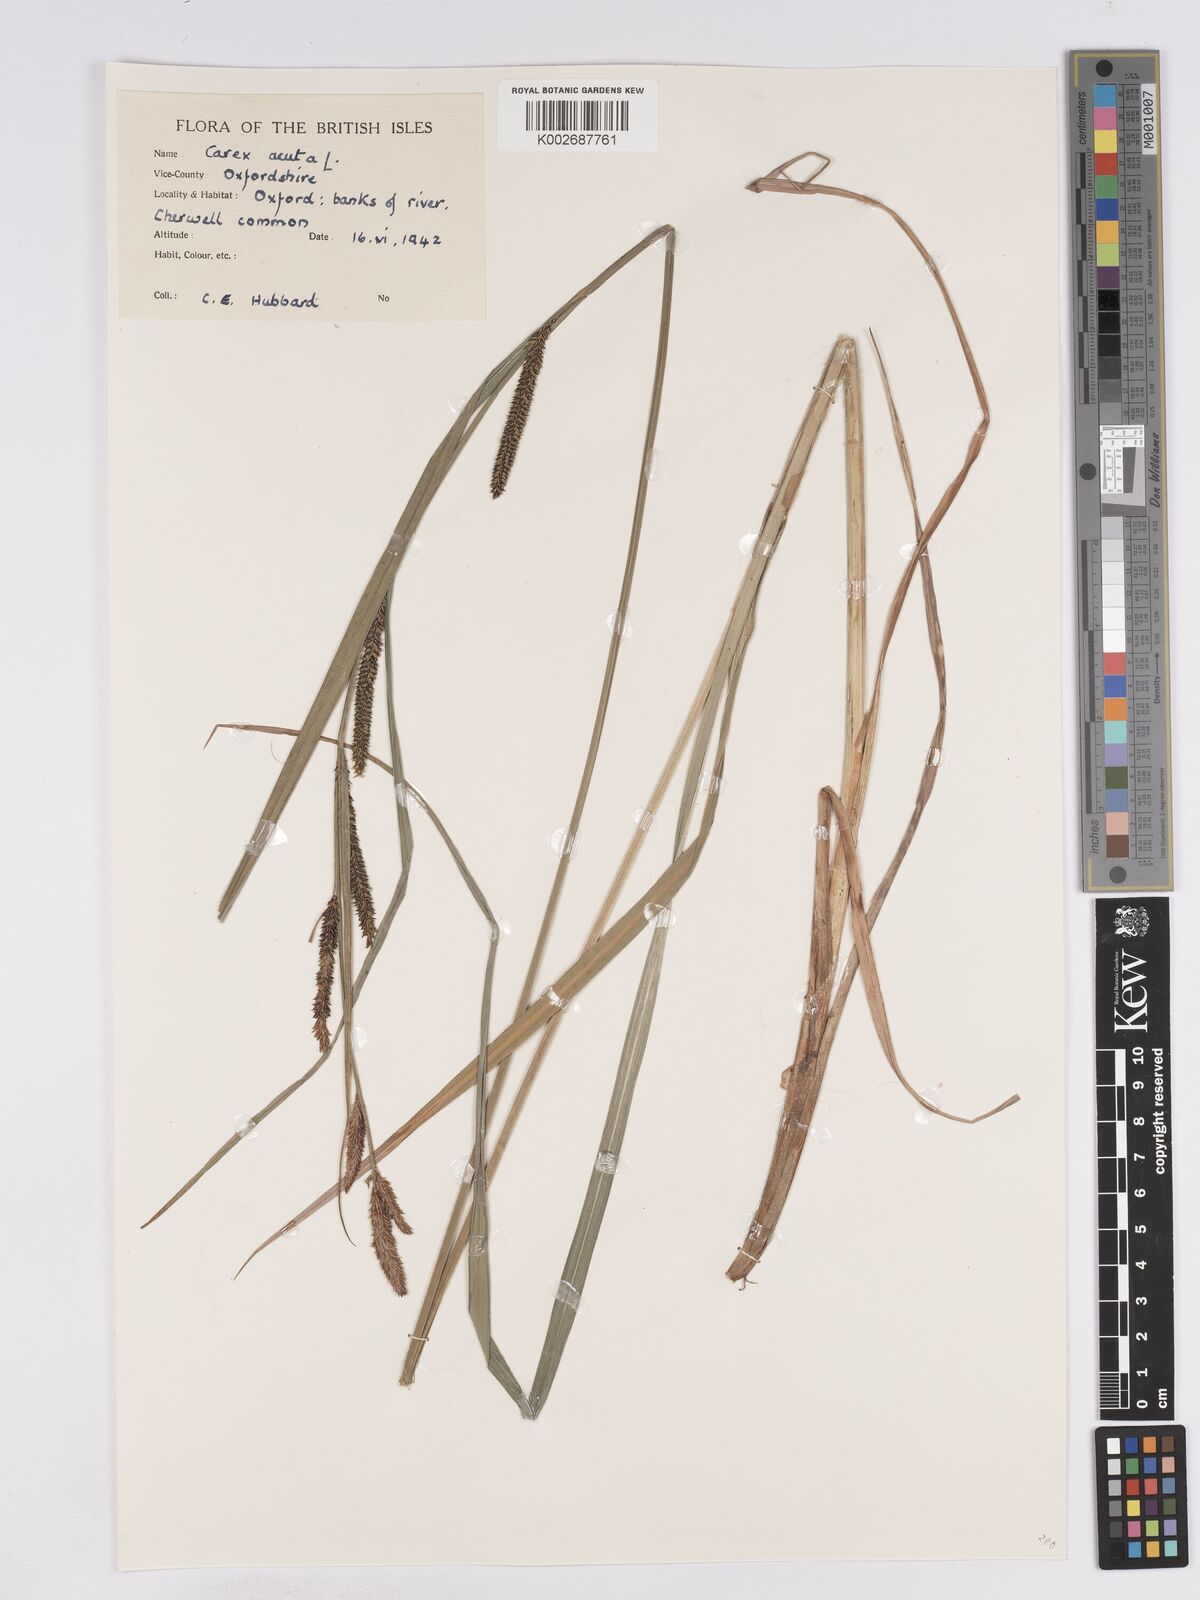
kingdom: Plantae
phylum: Tracheophyta
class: Liliopsida
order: Poales
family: Cyperaceae
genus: Carex
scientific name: Carex acuta
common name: Slender tufted-sedge
